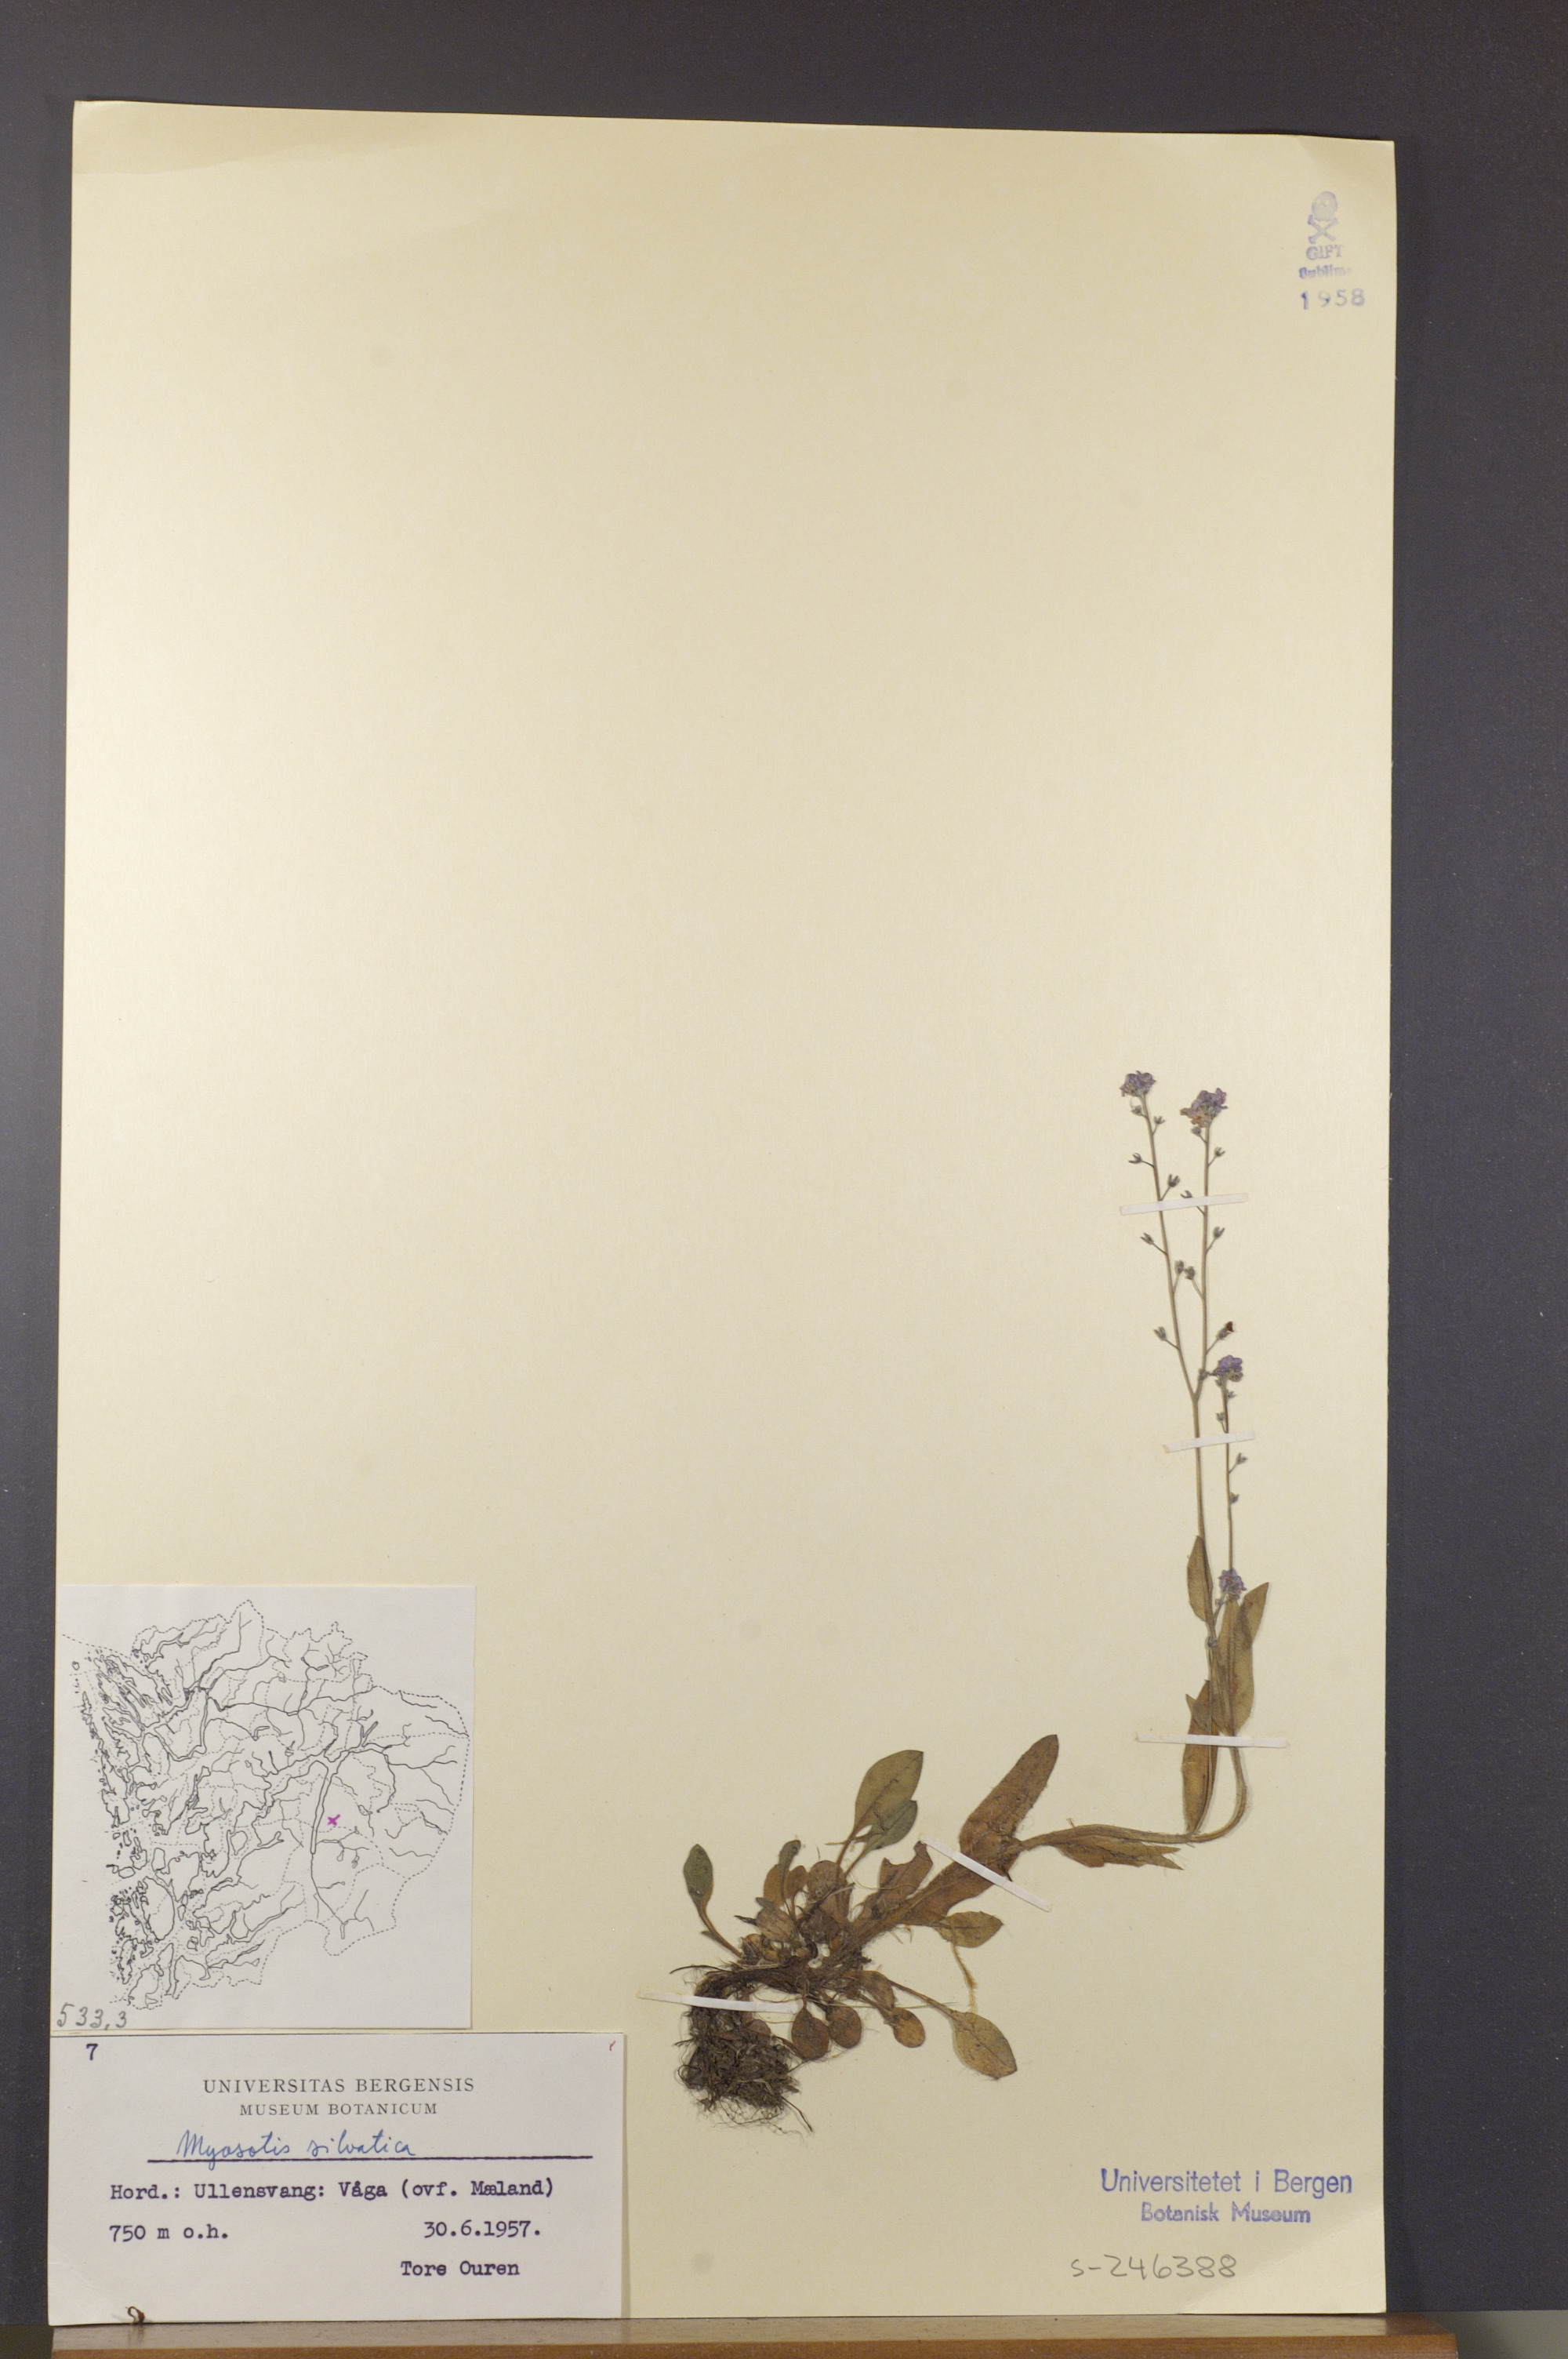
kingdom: Plantae
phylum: Tracheophyta
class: Magnoliopsida
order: Boraginales
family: Boraginaceae
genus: Myosotis
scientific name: Myosotis decumbens
